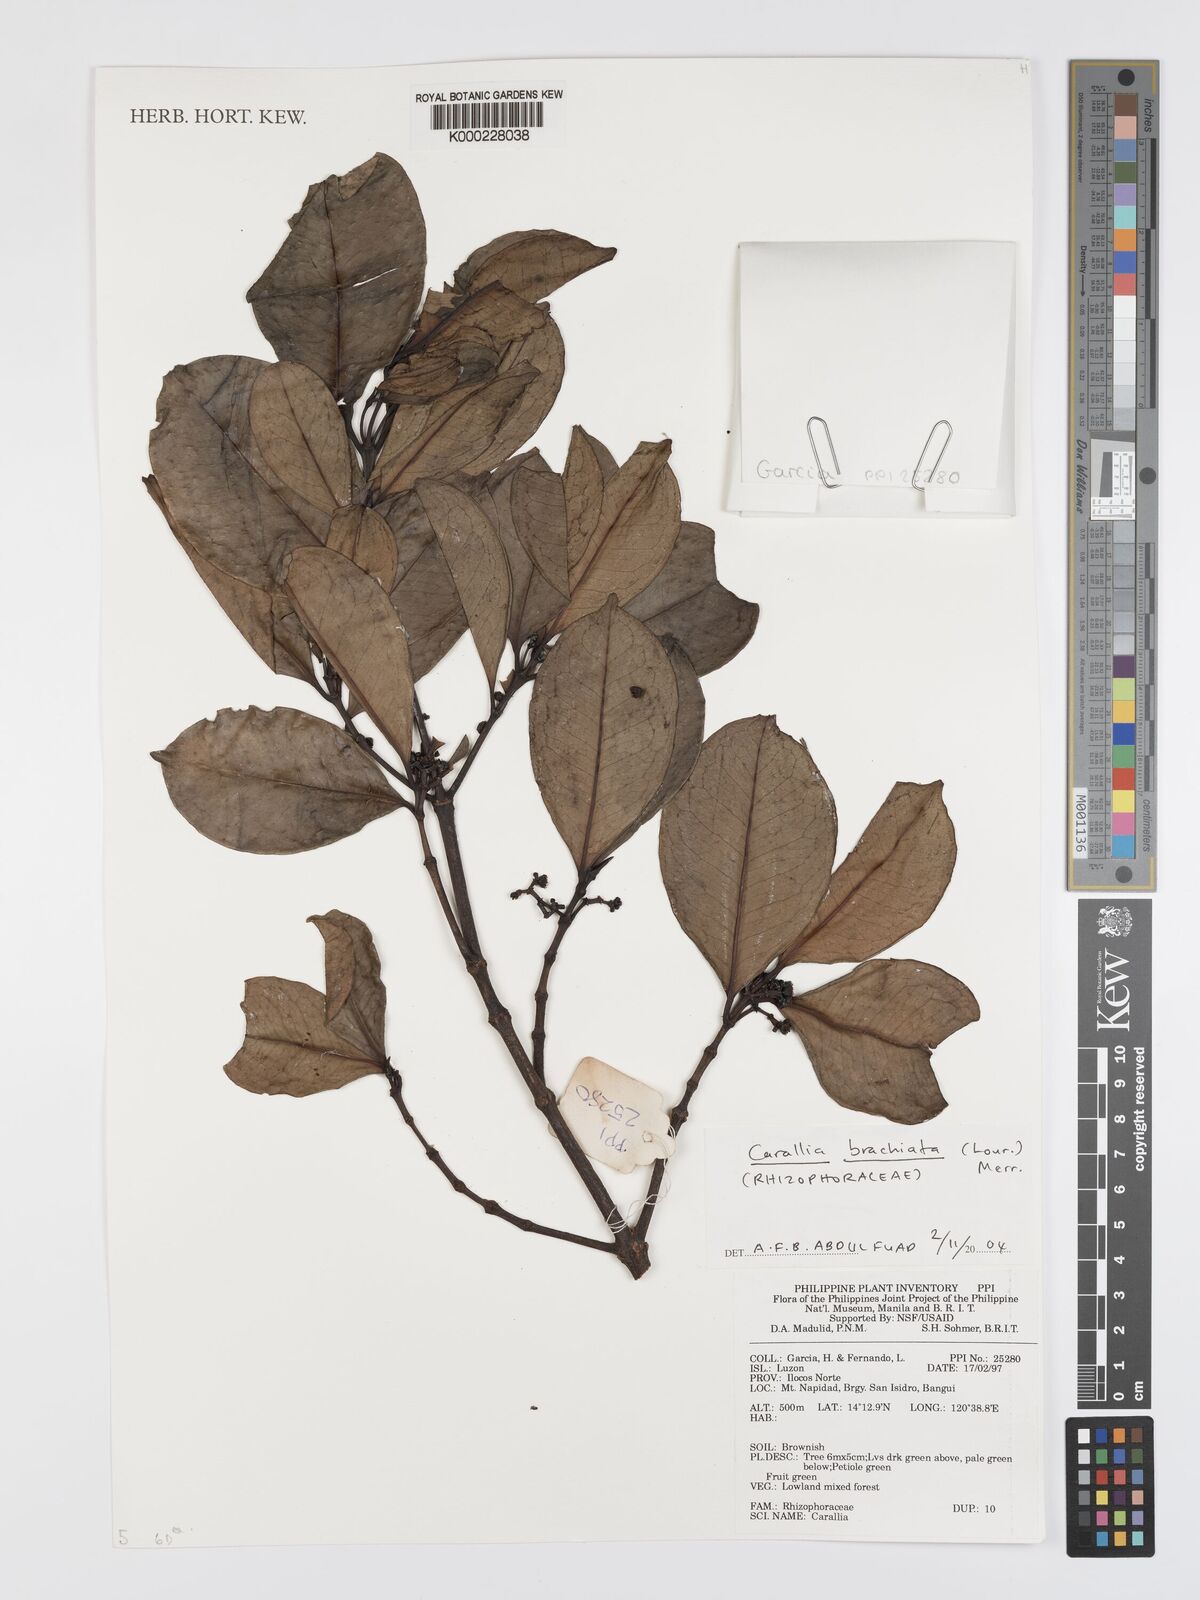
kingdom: Plantae
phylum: Tracheophyta
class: Magnoliopsida
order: Malpighiales
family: Rhizophoraceae
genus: Carallia
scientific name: Carallia brachiata
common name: Carallawood
